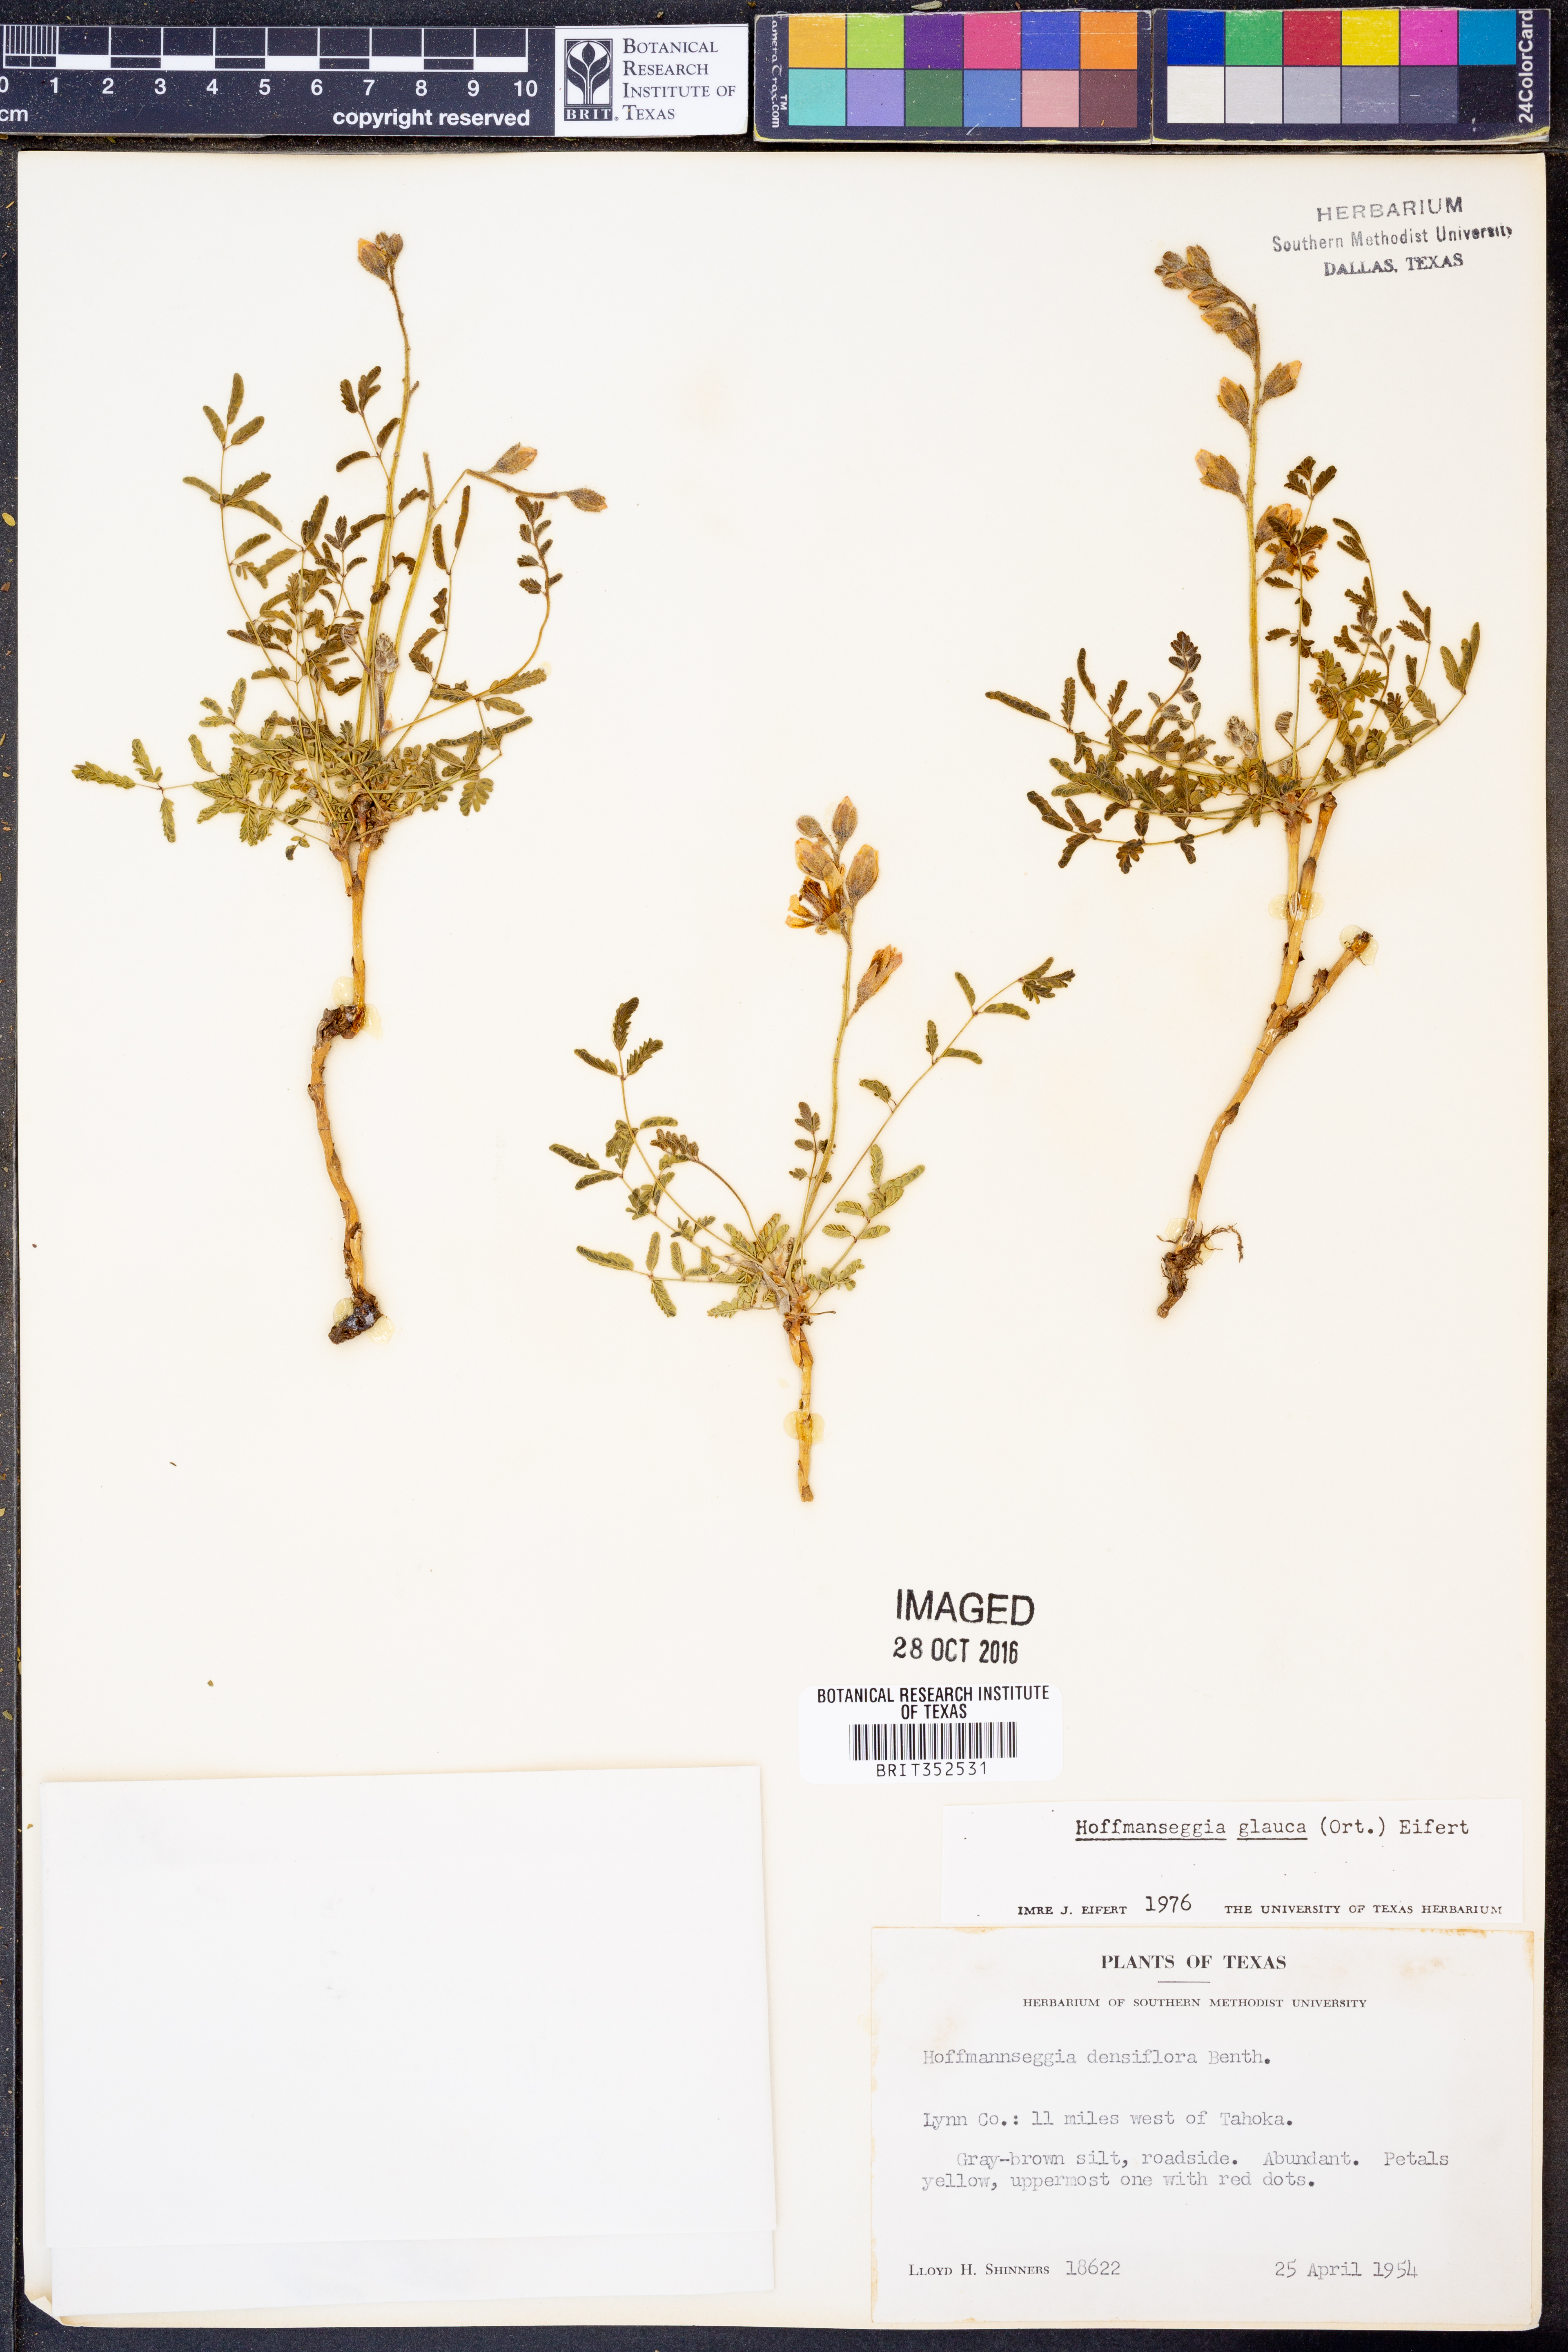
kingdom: Plantae
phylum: Tracheophyta
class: Magnoliopsida
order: Fabales
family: Fabaceae
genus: Hoffmannseggia
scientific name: Hoffmannseggia glauca
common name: Pignut
